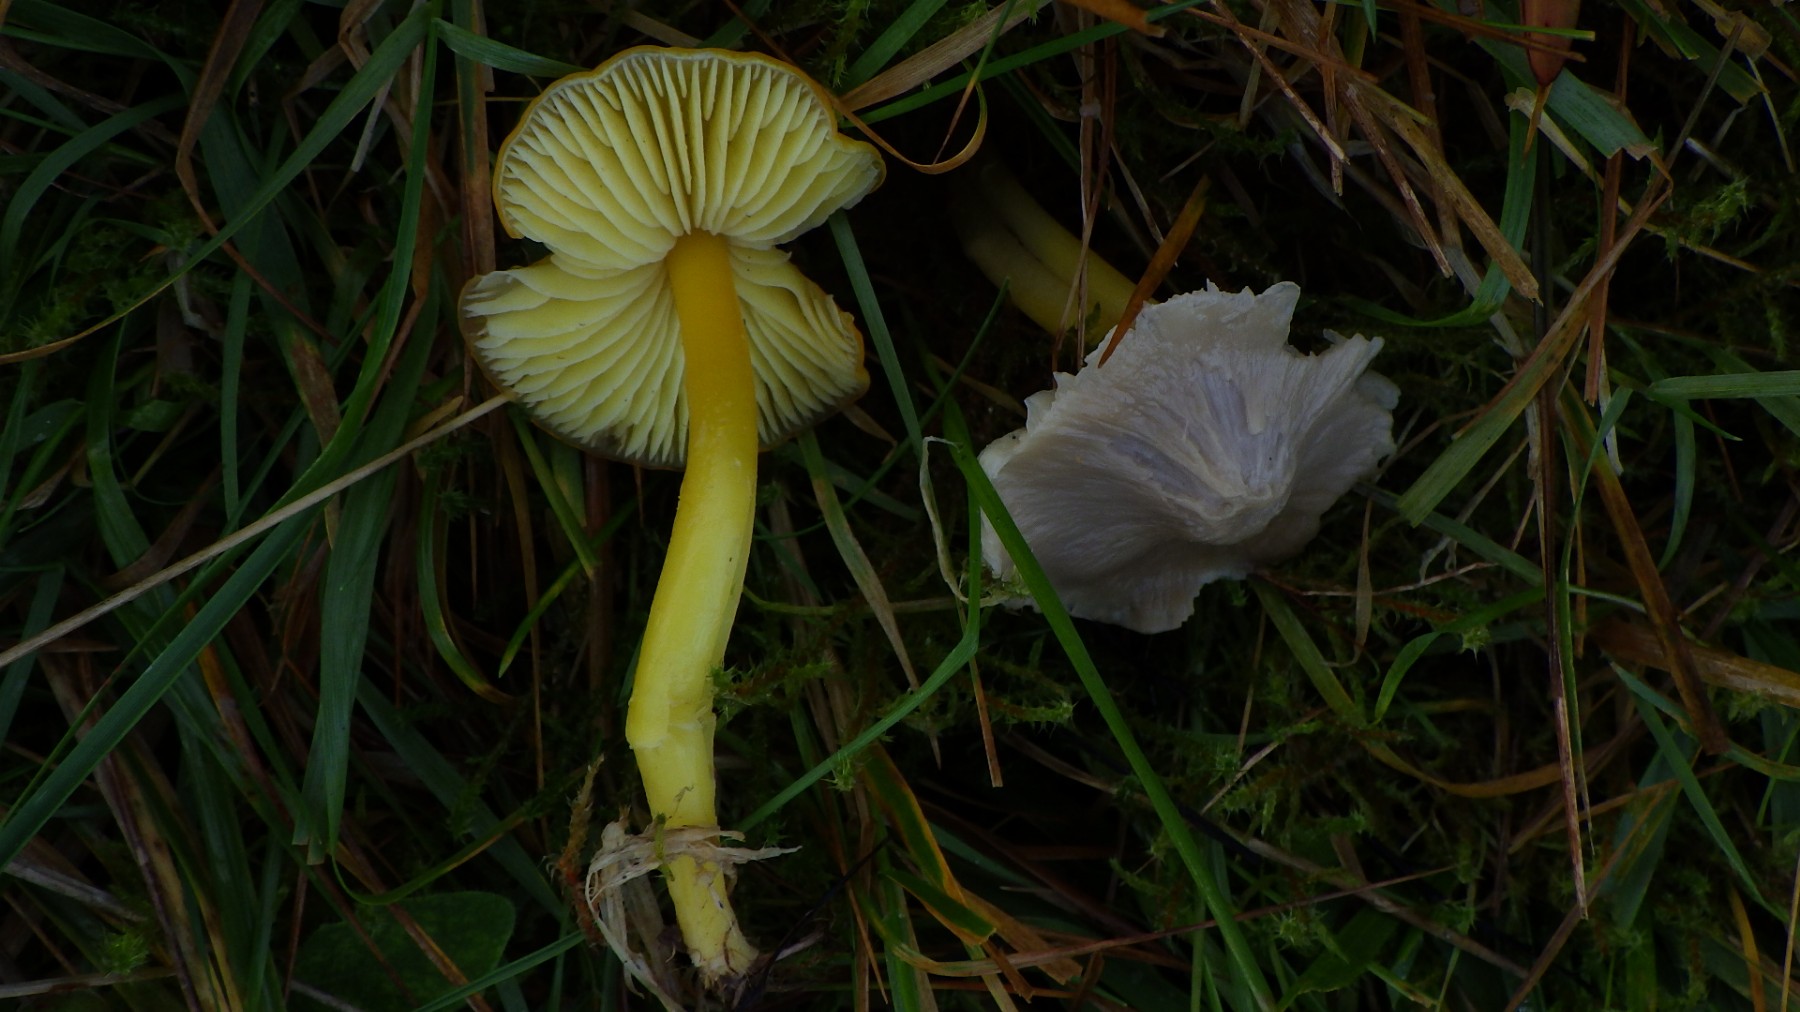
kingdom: Fungi
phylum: Basidiomycota
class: Agaricomycetes
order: Agaricales
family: Hygrophoraceae
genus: Hygrocybe
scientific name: Hygrocybe chlorophana
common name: gul vokshat
